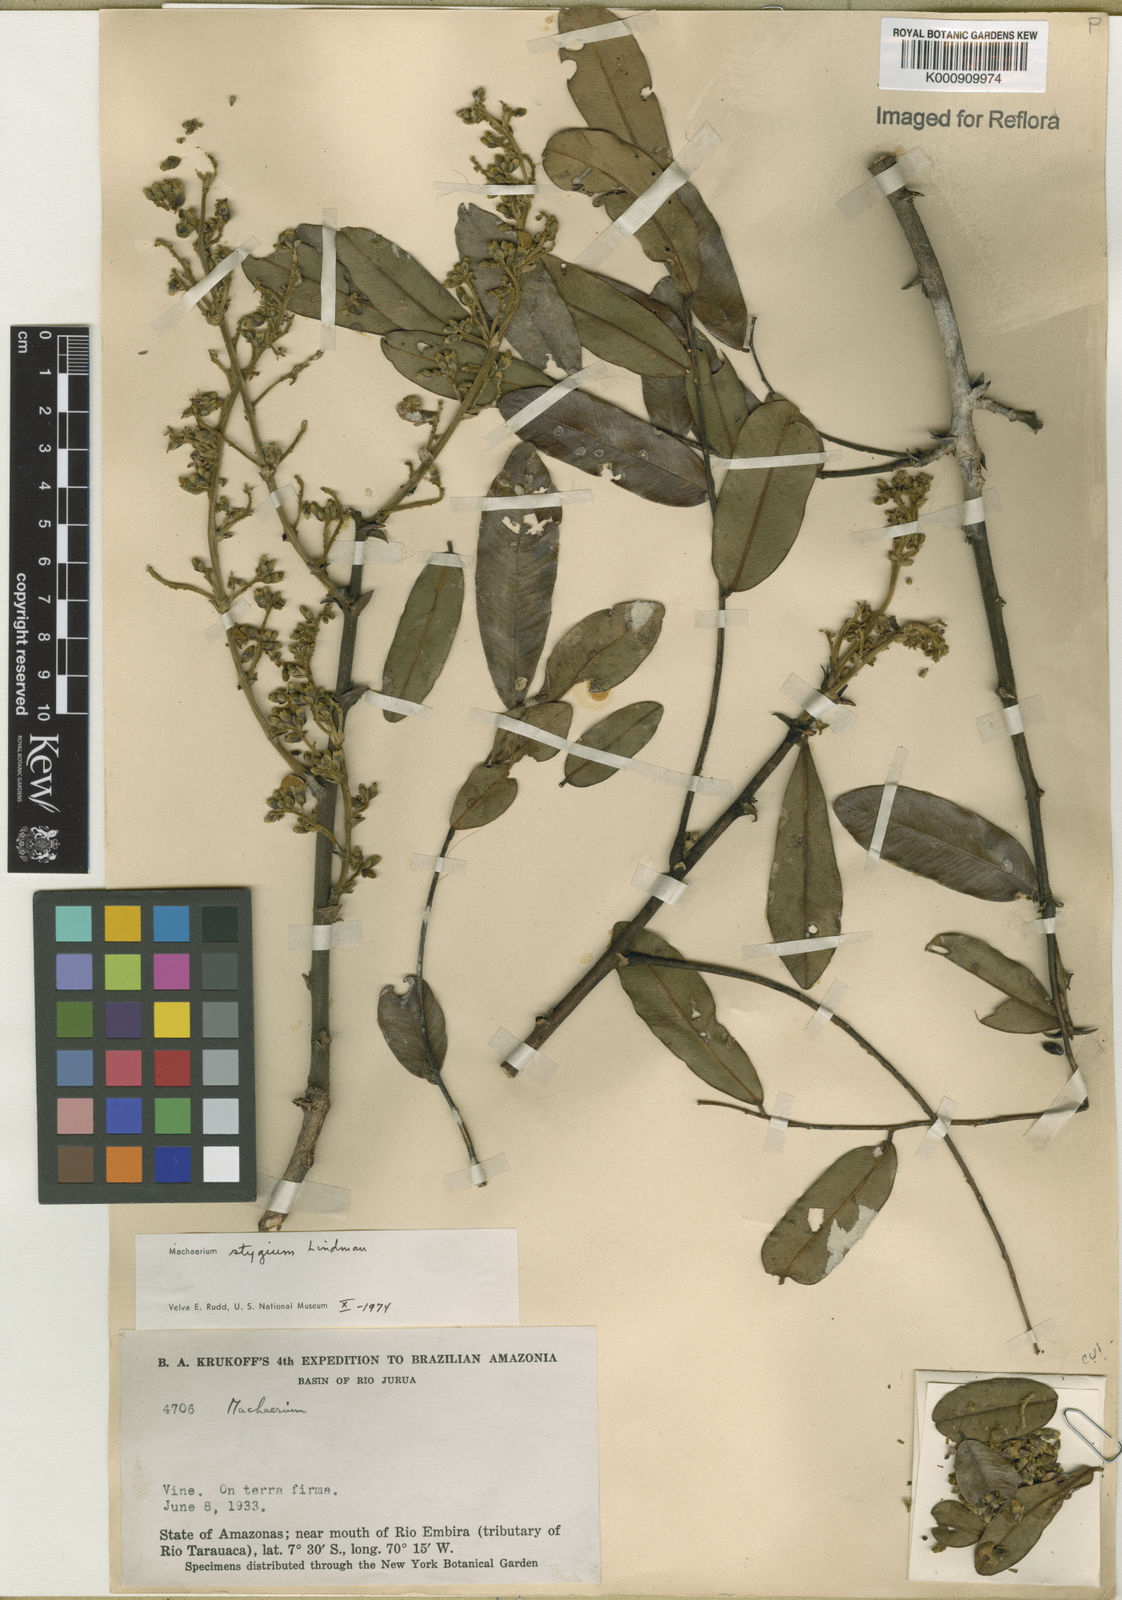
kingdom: Plantae
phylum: Tracheophyta
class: Magnoliopsida
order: Fabales
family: Fabaceae
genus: Machaerium
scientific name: Machaerium stygium
